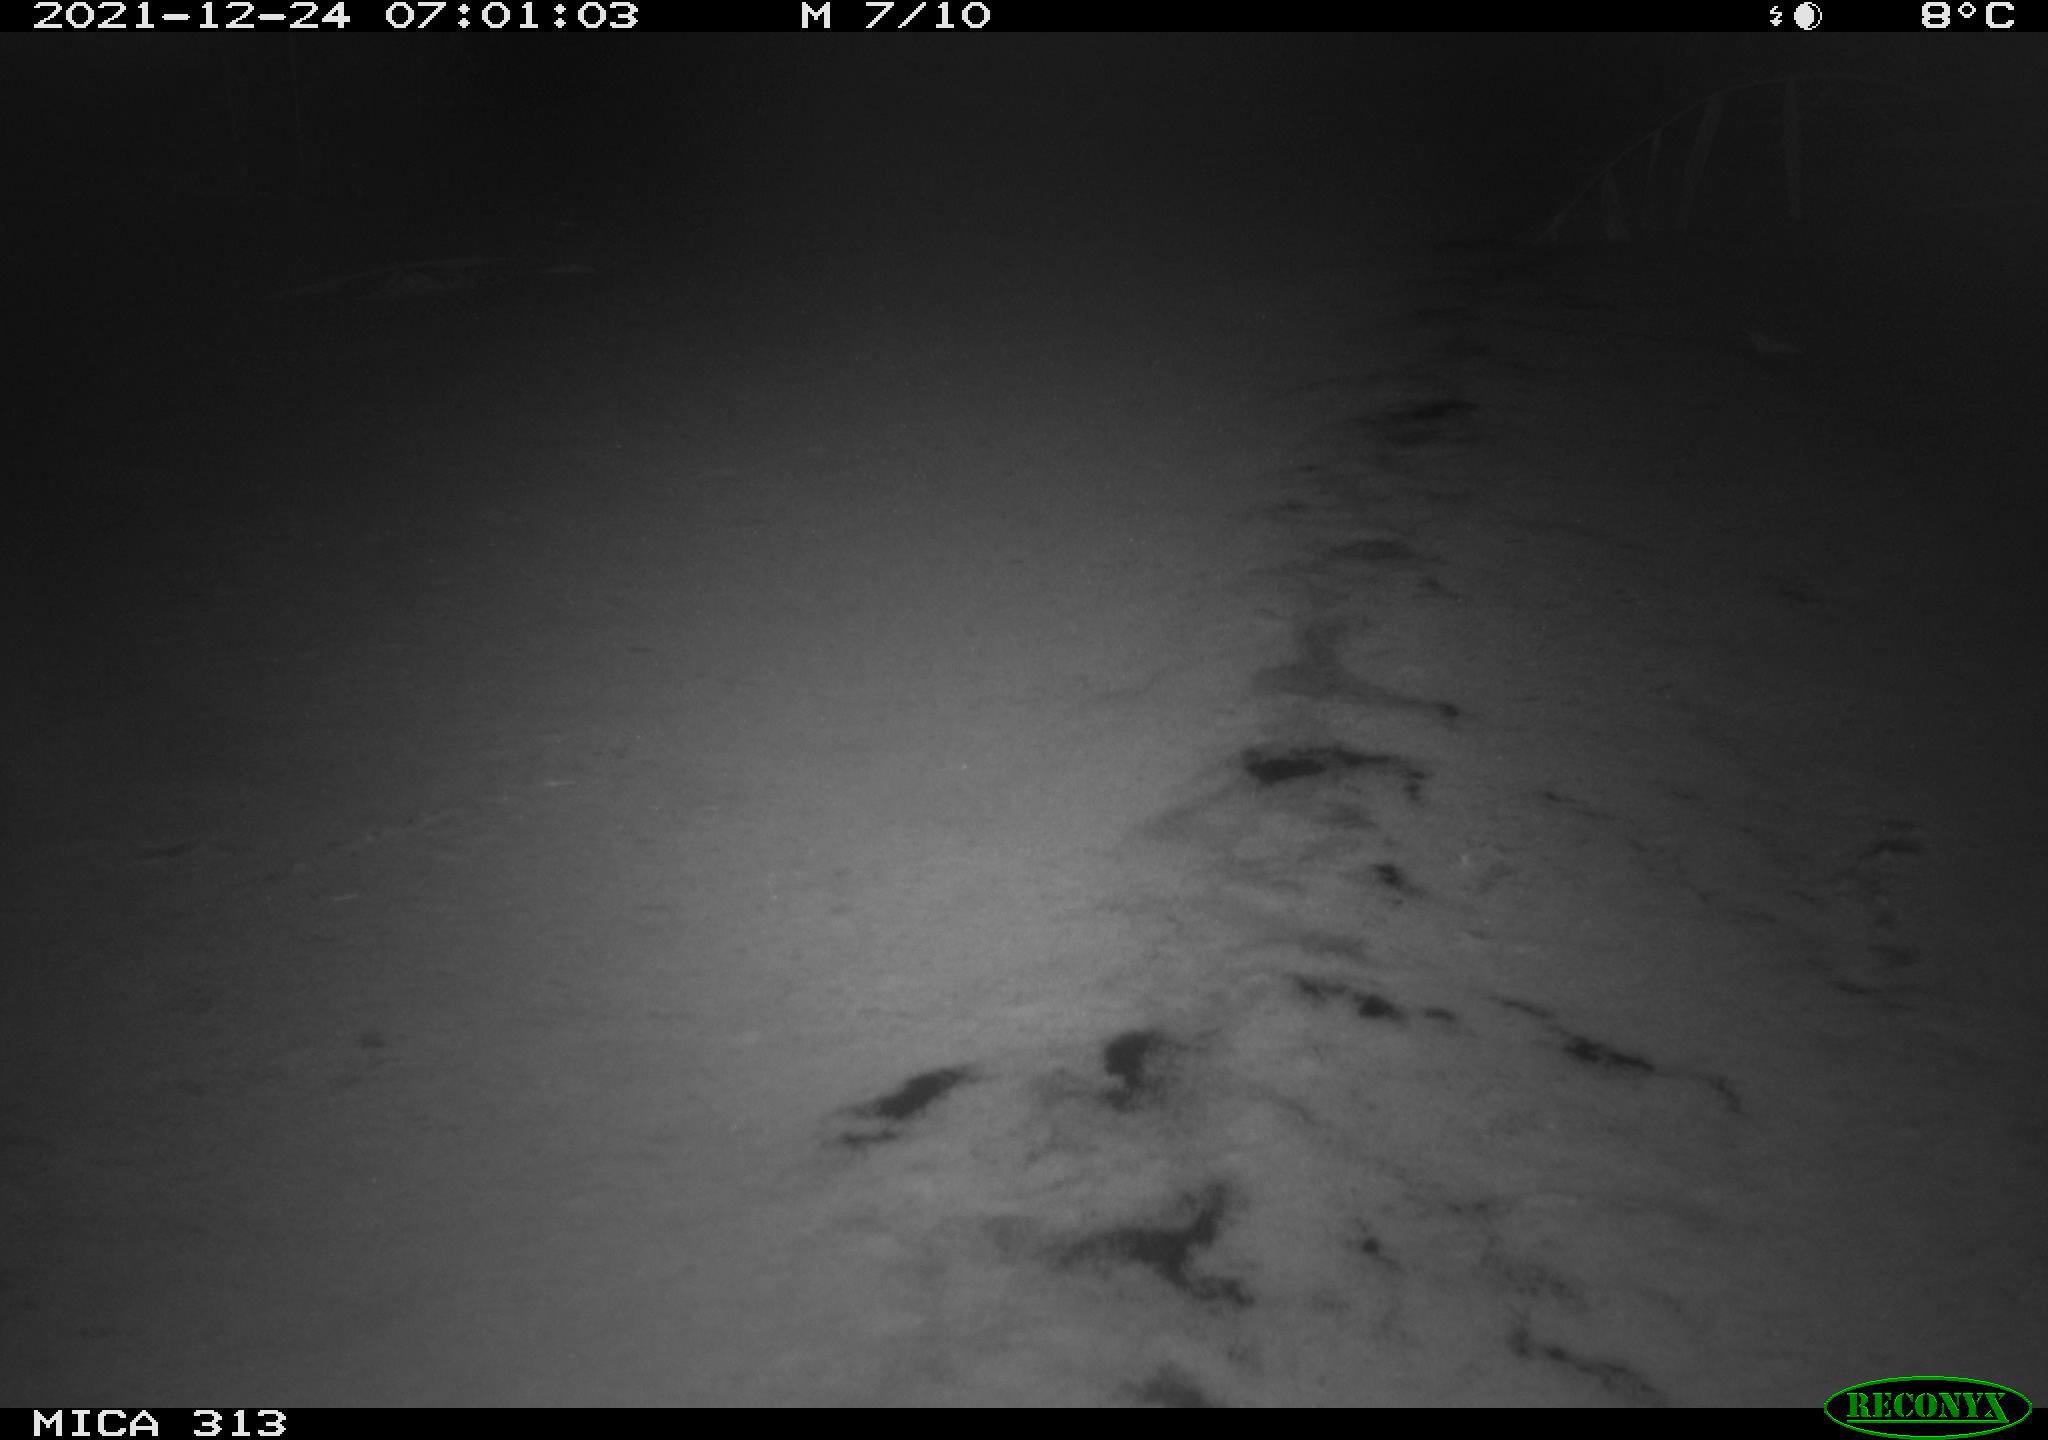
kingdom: Animalia
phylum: Chordata
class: Aves
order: Gruiformes
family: Rallidae
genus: Gallinula
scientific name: Gallinula chloropus
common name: Common moorhen
